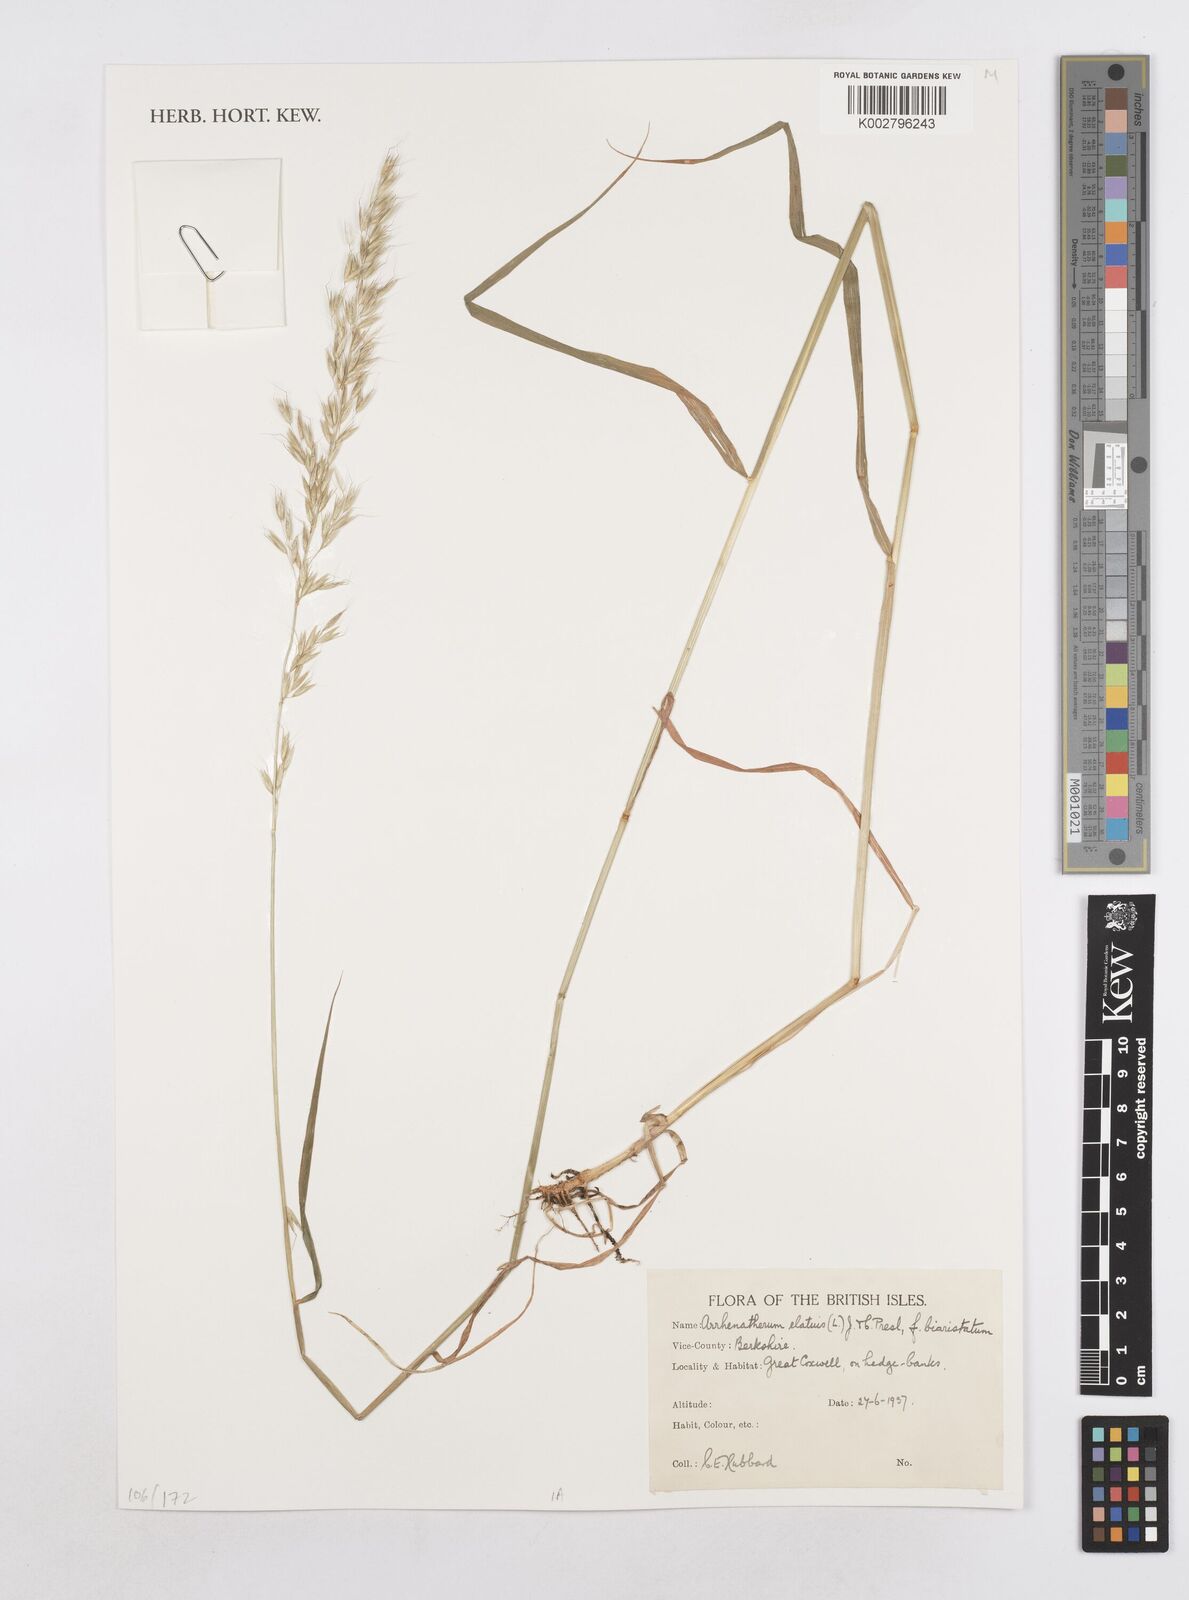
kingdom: Plantae
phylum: Tracheophyta
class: Liliopsida
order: Poales
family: Poaceae
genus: Arrhenatherum
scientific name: Arrhenatherum elatius
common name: Tall oatgrass
